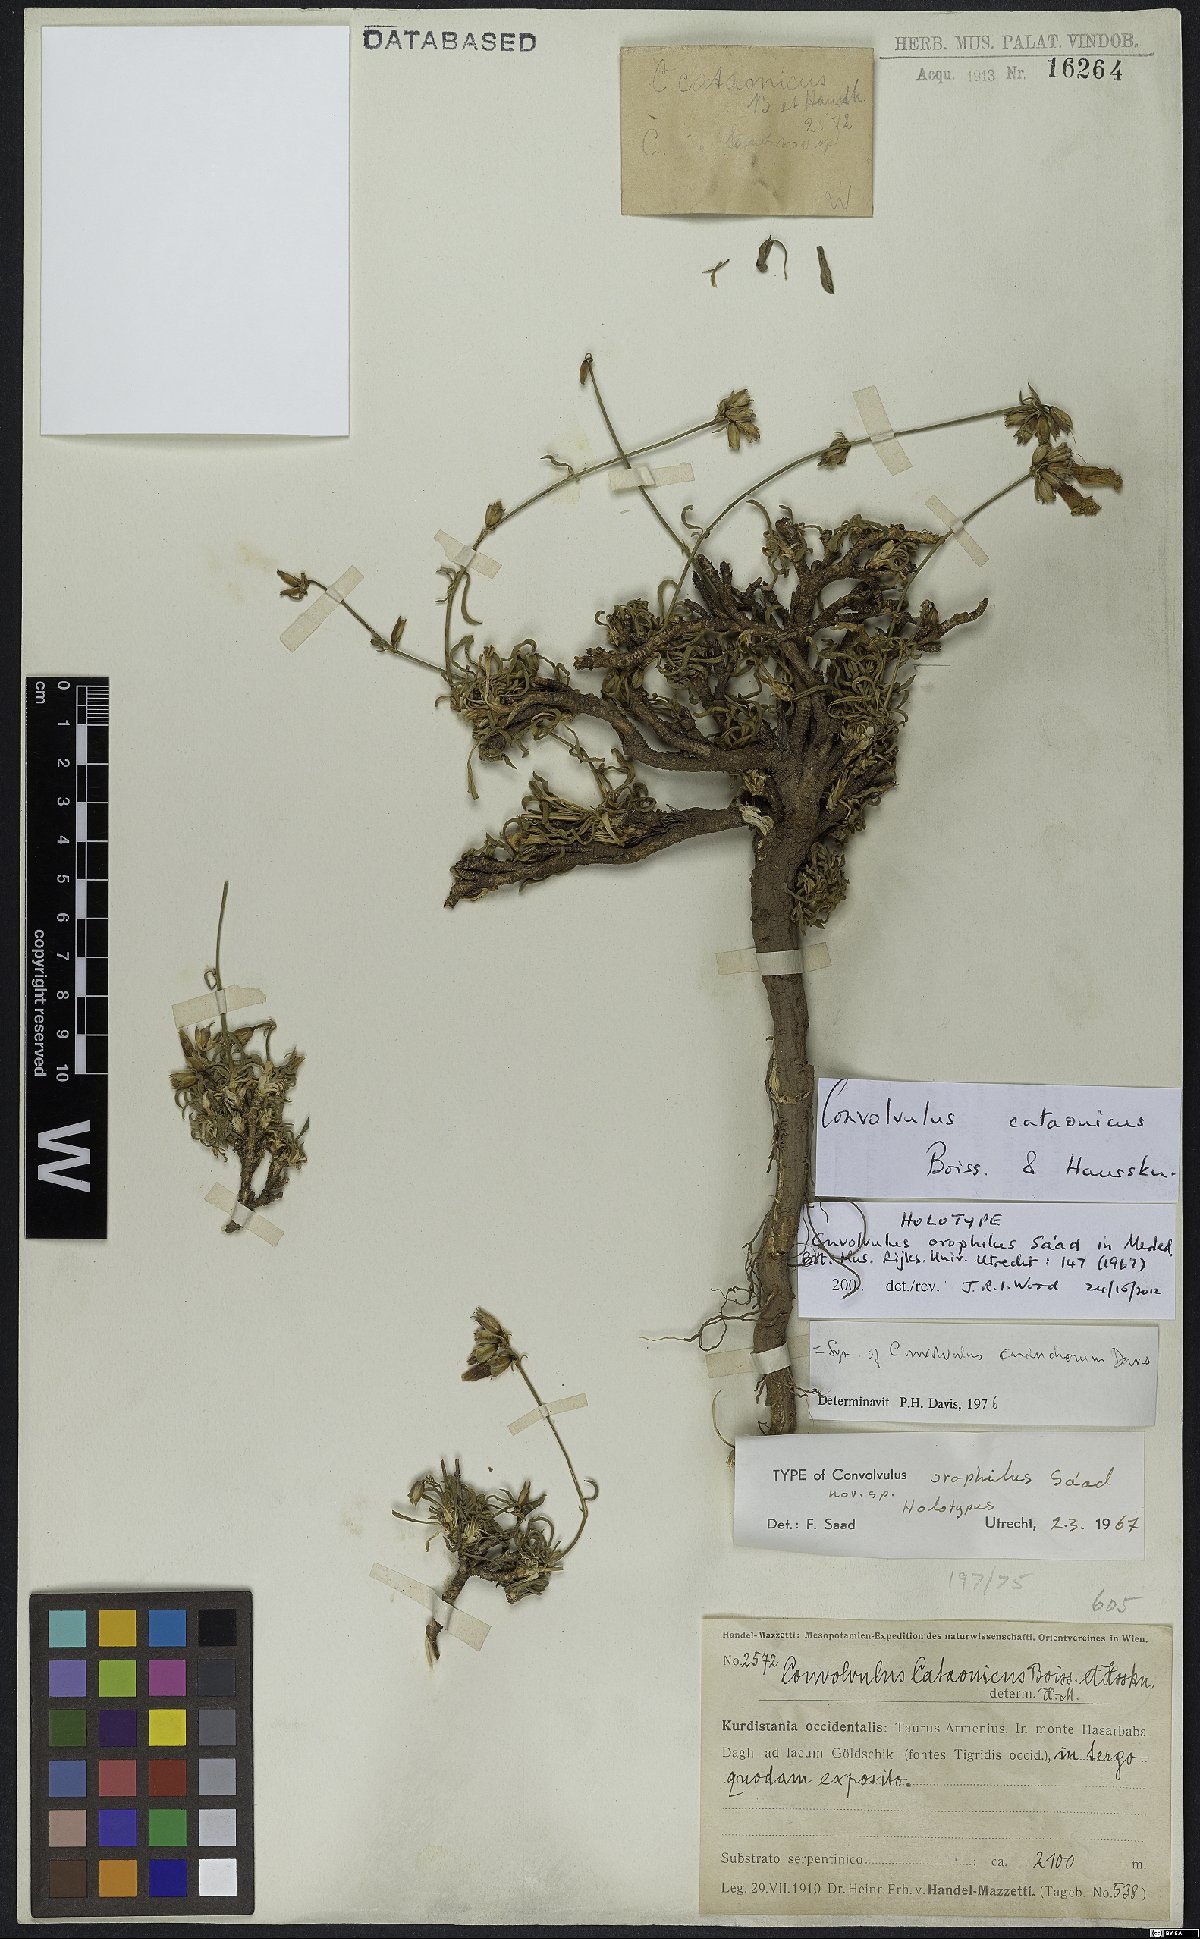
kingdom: Plantae
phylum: Tracheophyta
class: Magnoliopsida
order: Solanales
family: Convolvulaceae
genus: Convolvulus
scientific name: Convolvulus cataonicus
